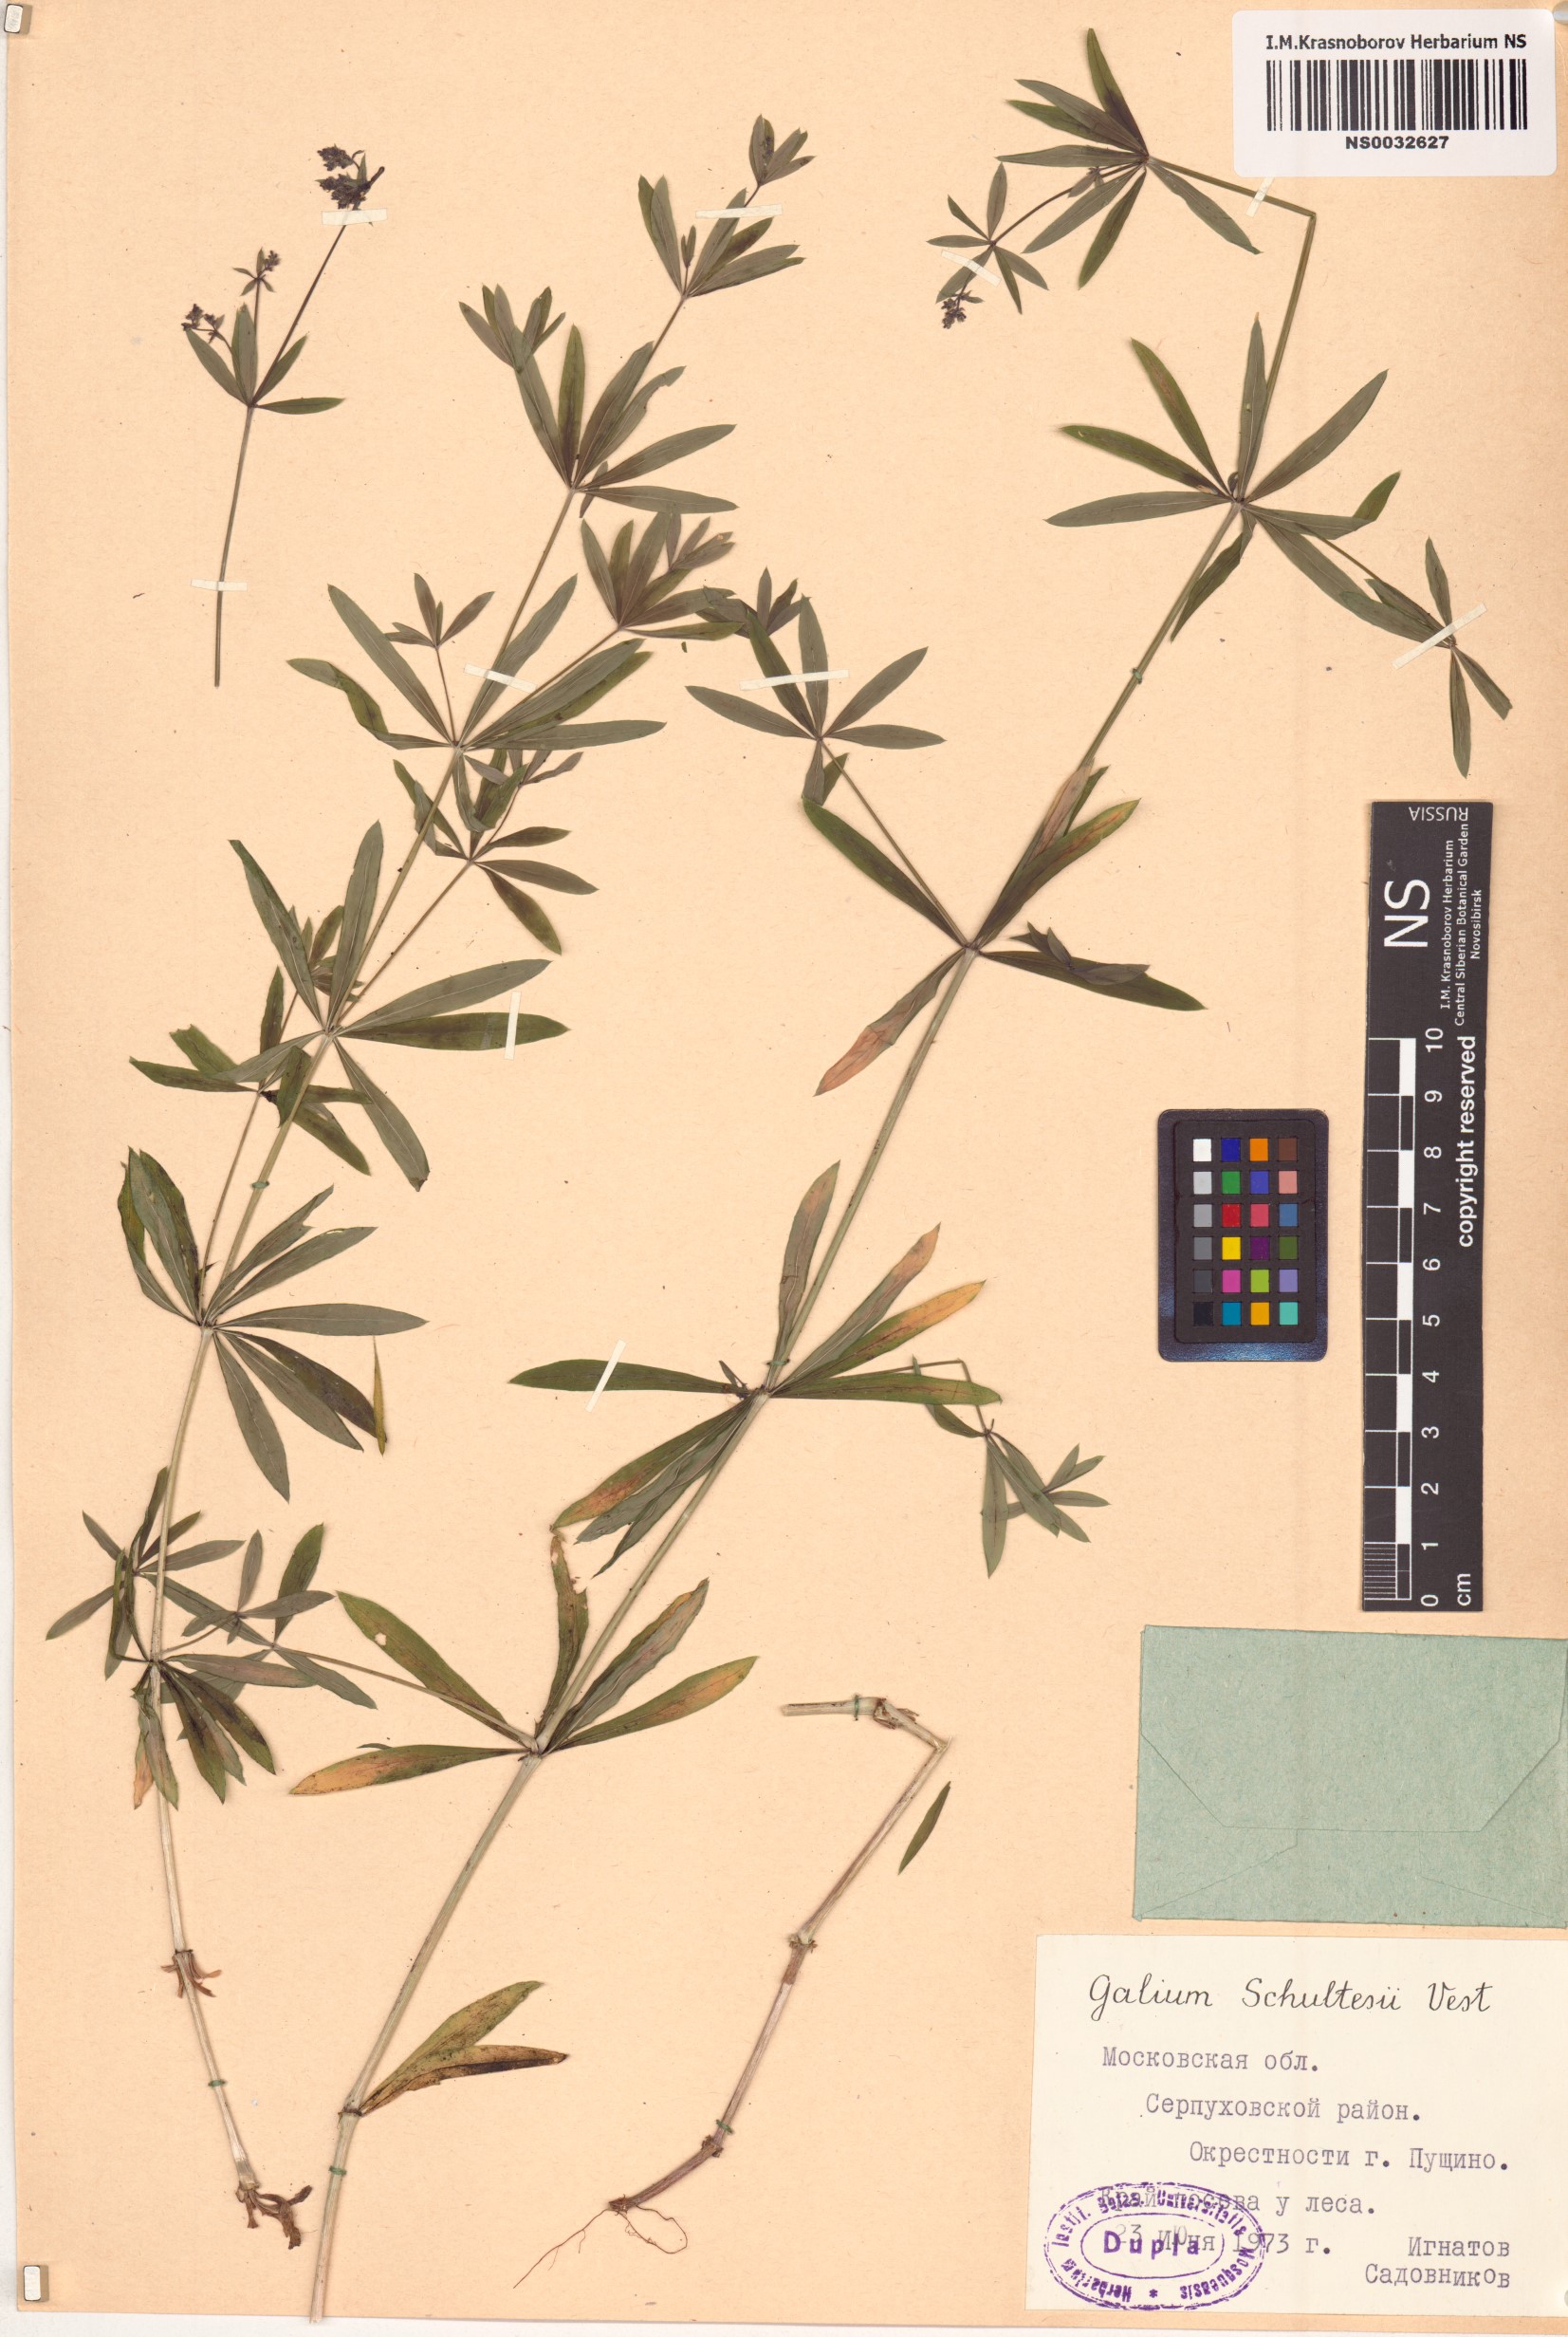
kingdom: Plantae
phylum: Tracheophyta
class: Magnoliopsida
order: Gentianales
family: Rubiaceae
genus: Galium
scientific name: Galium intermedium
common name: Bedstraw
